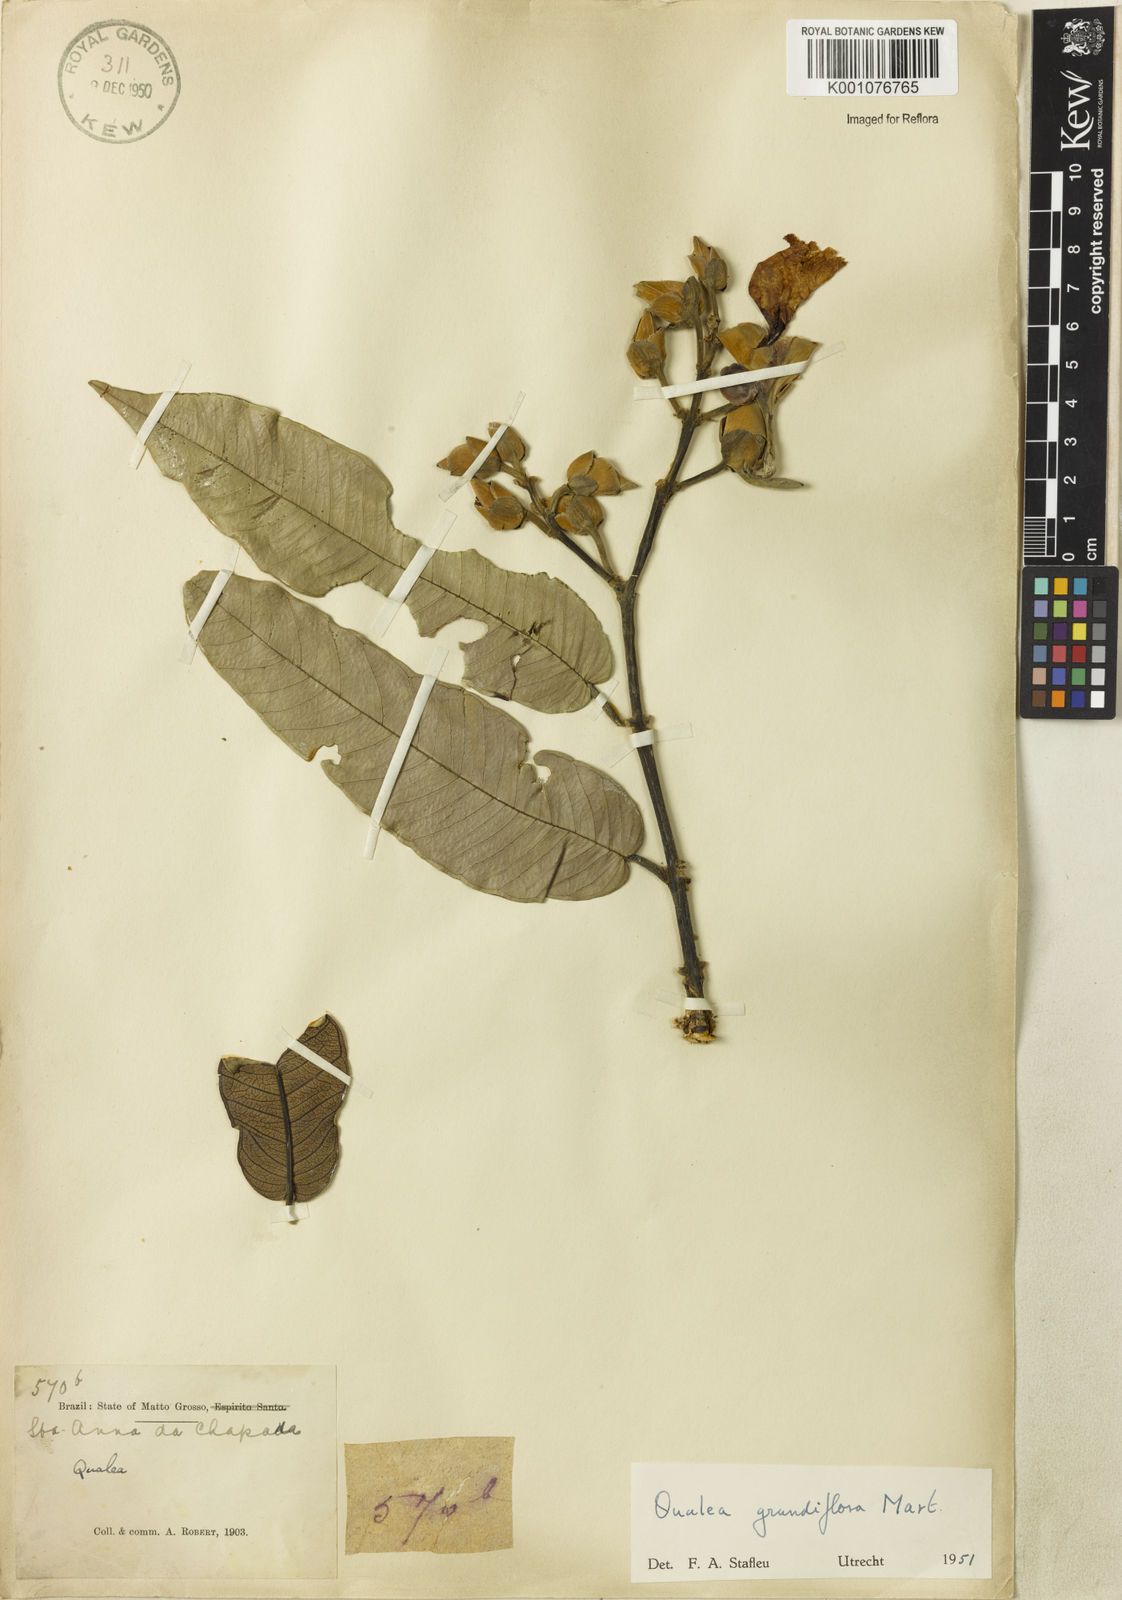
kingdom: Plantae
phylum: Tracheophyta
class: Magnoliopsida
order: Myrtales
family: Vochysiaceae
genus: Qualea
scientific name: Qualea grandiflora
